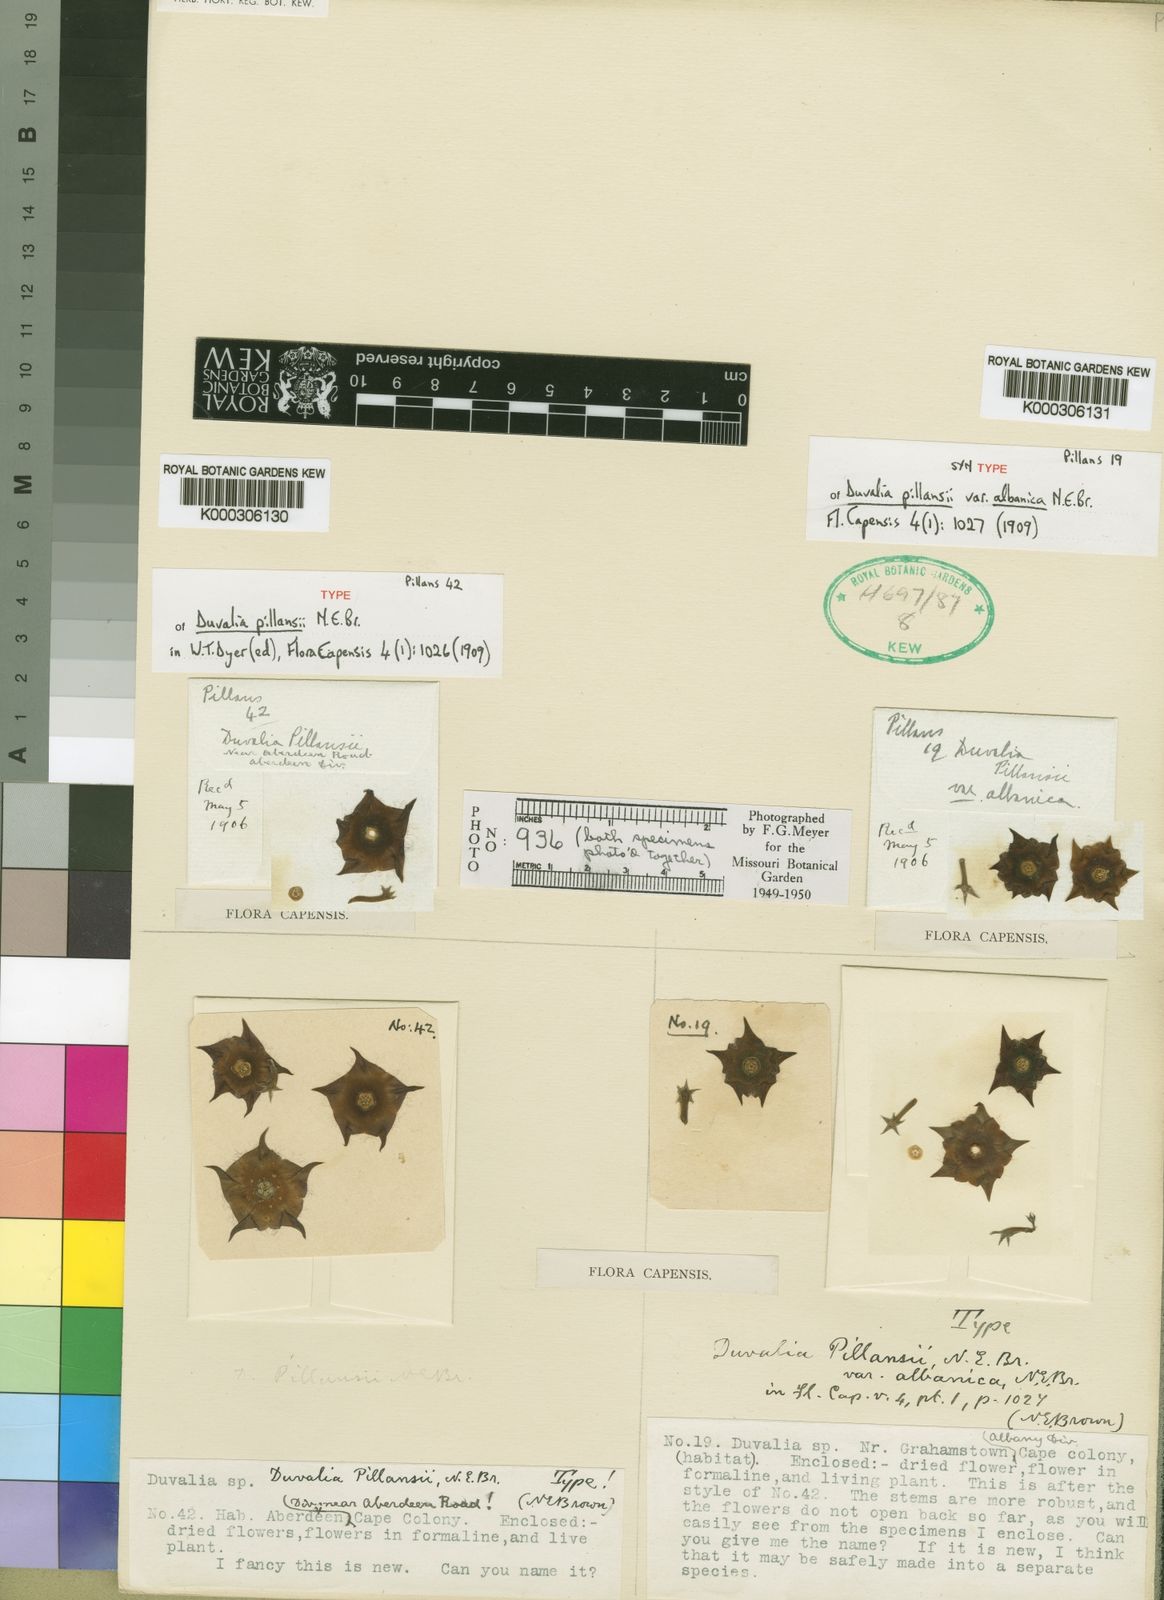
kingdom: Plantae
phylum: Tracheophyta
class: Magnoliopsida
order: Gentianales
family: Apocynaceae
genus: Ceropegia
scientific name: Ceropegia pillansiana
